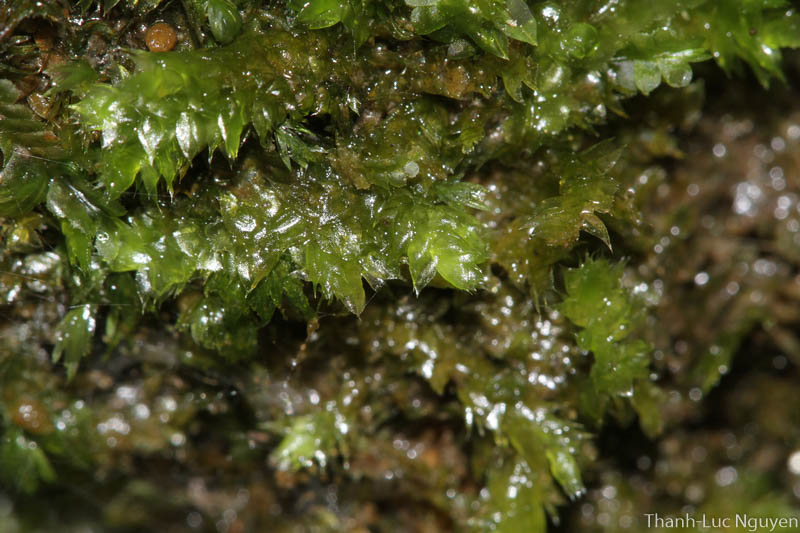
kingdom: Plantae
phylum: Bryophyta
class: Bryopsida
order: Hypnales
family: Hypnaceae
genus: Vesicularia
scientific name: Vesicularia
